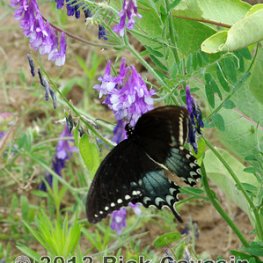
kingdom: Animalia
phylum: Arthropoda
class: Insecta
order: Lepidoptera
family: Papilionidae
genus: Pterourus
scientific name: Pterourus troilus
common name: Spicebush Swallowtail
